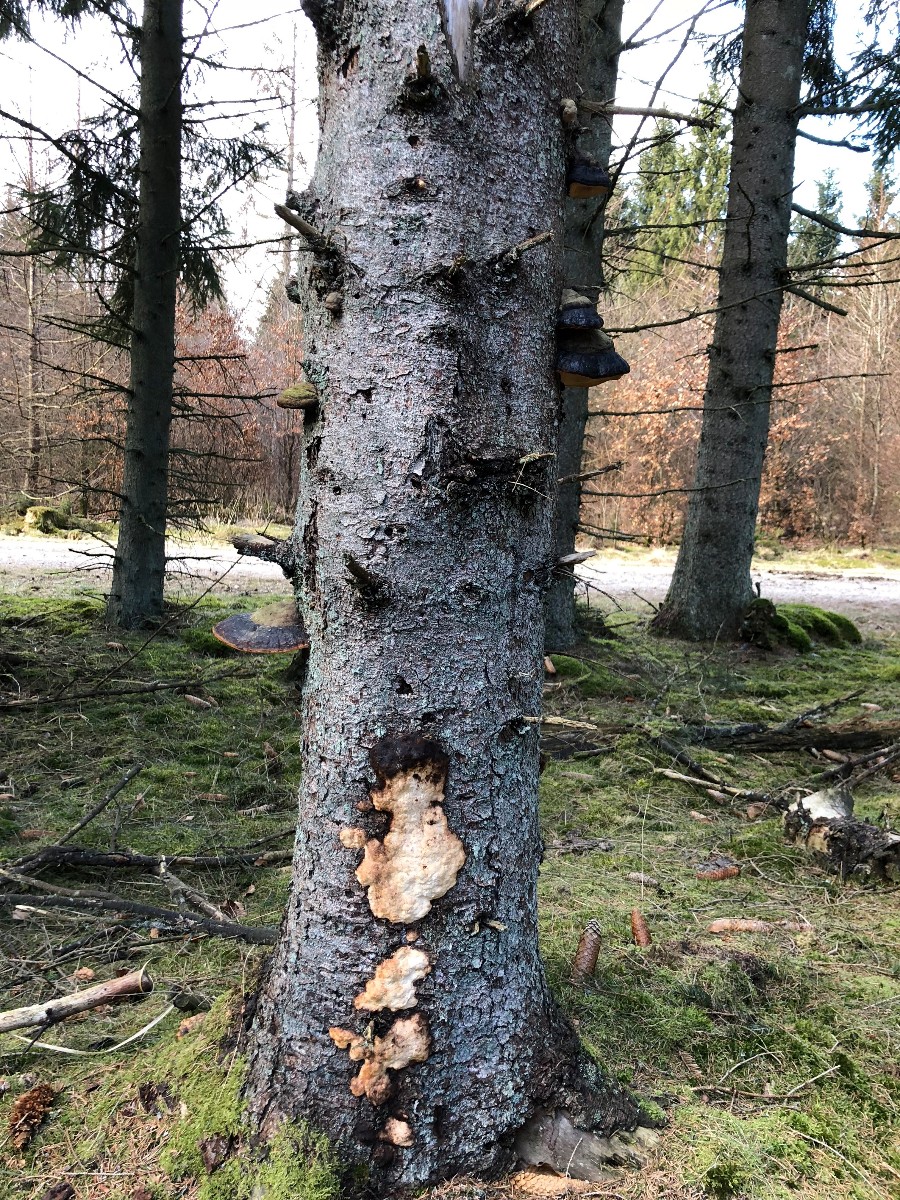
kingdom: Fungi
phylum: Basidiomycota
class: Agaricomycetes
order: Polyporales
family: Fomitopsidaceae
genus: Fomitopsis
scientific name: Fomitopsis pinicola
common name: randbæltet hovporesvamp
